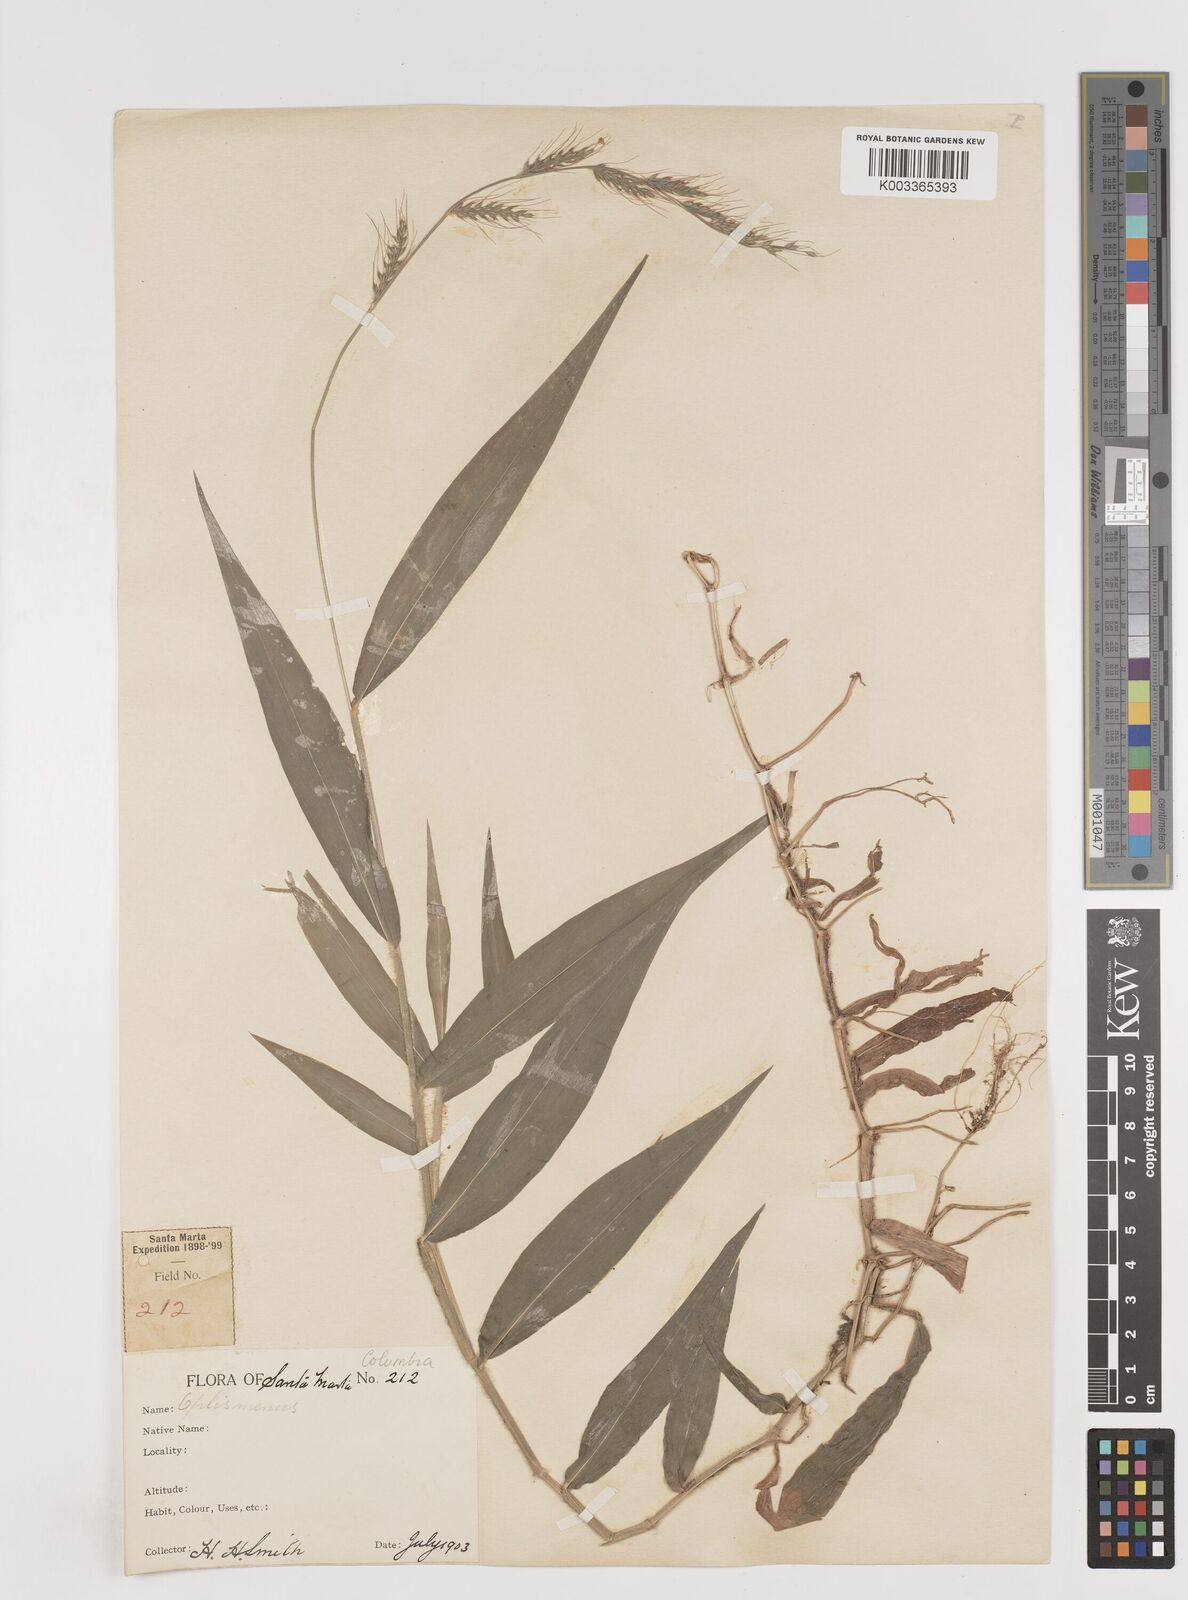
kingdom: Plantae
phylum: Tracheophyta
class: Liliopsida
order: Poales
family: Poaceae
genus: Oplismenus
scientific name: Oplismenus hirtellus
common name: Basketgrass
